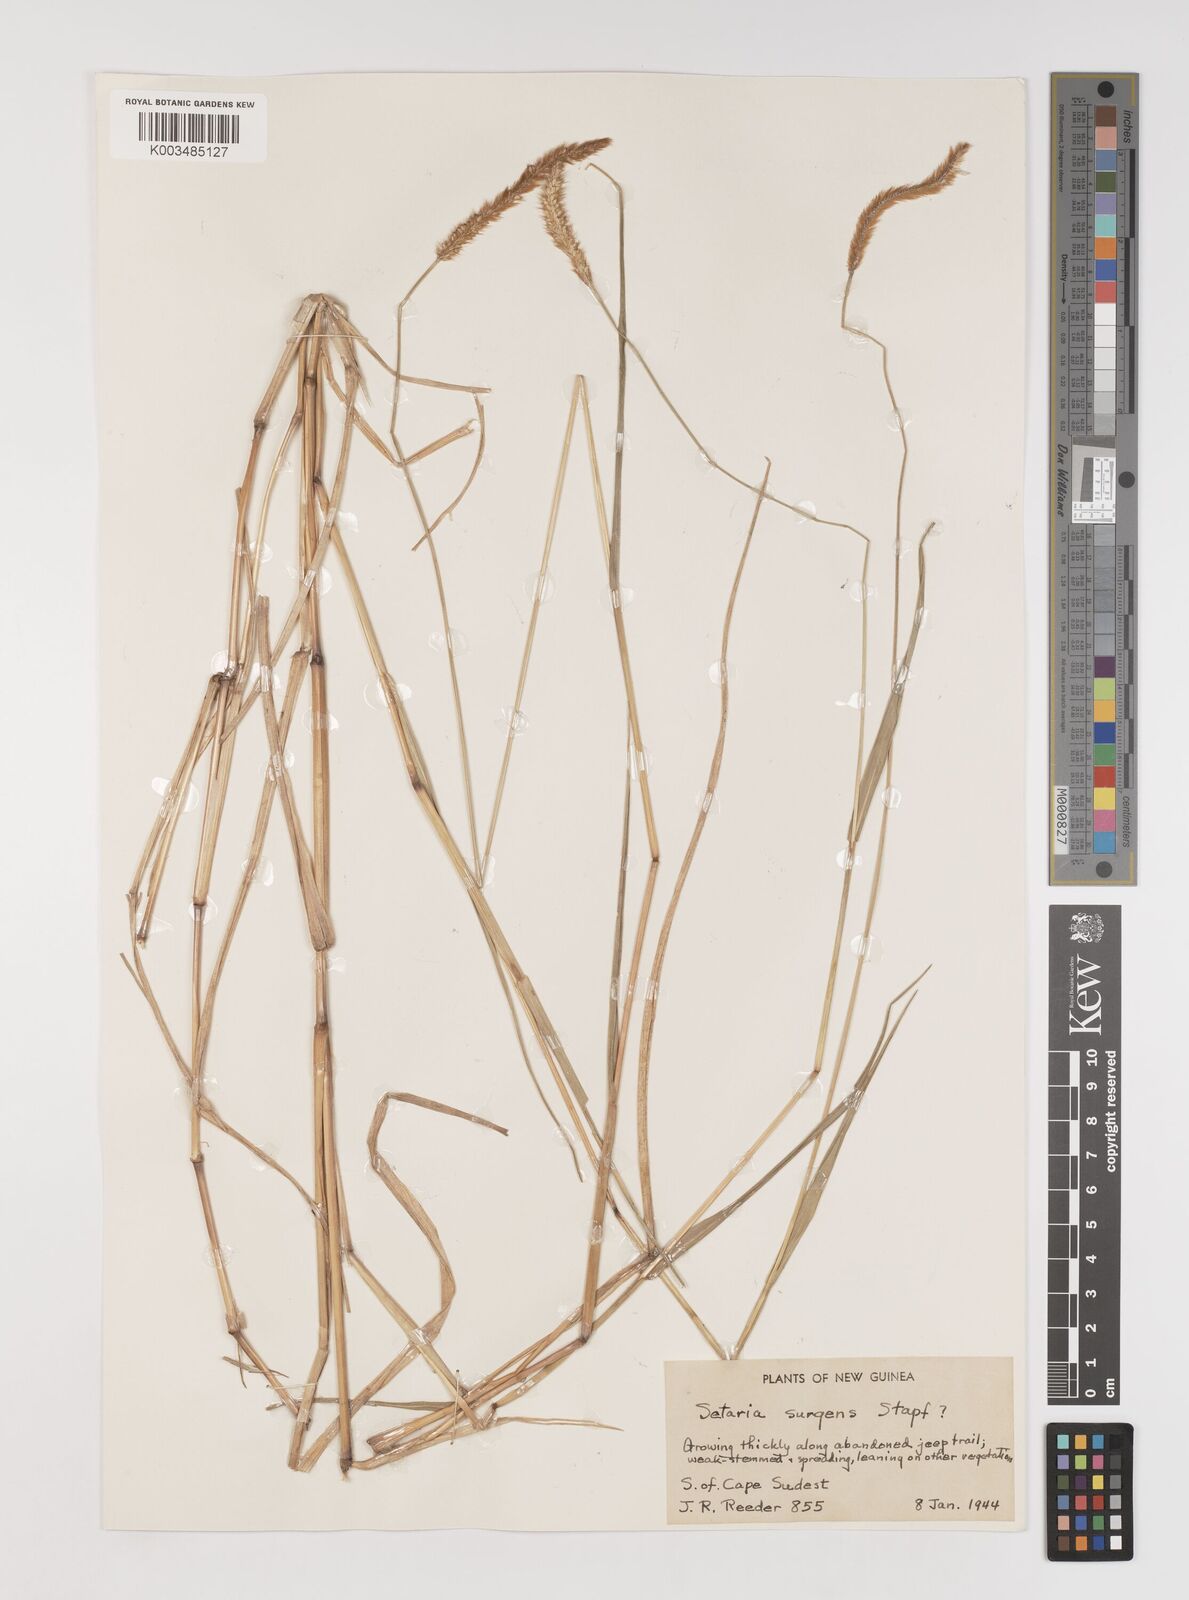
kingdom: Plantae
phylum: Tracheophyta
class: Liliopsida
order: Poales
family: Poaceae
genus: Setaria
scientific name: Setaria apiculata
